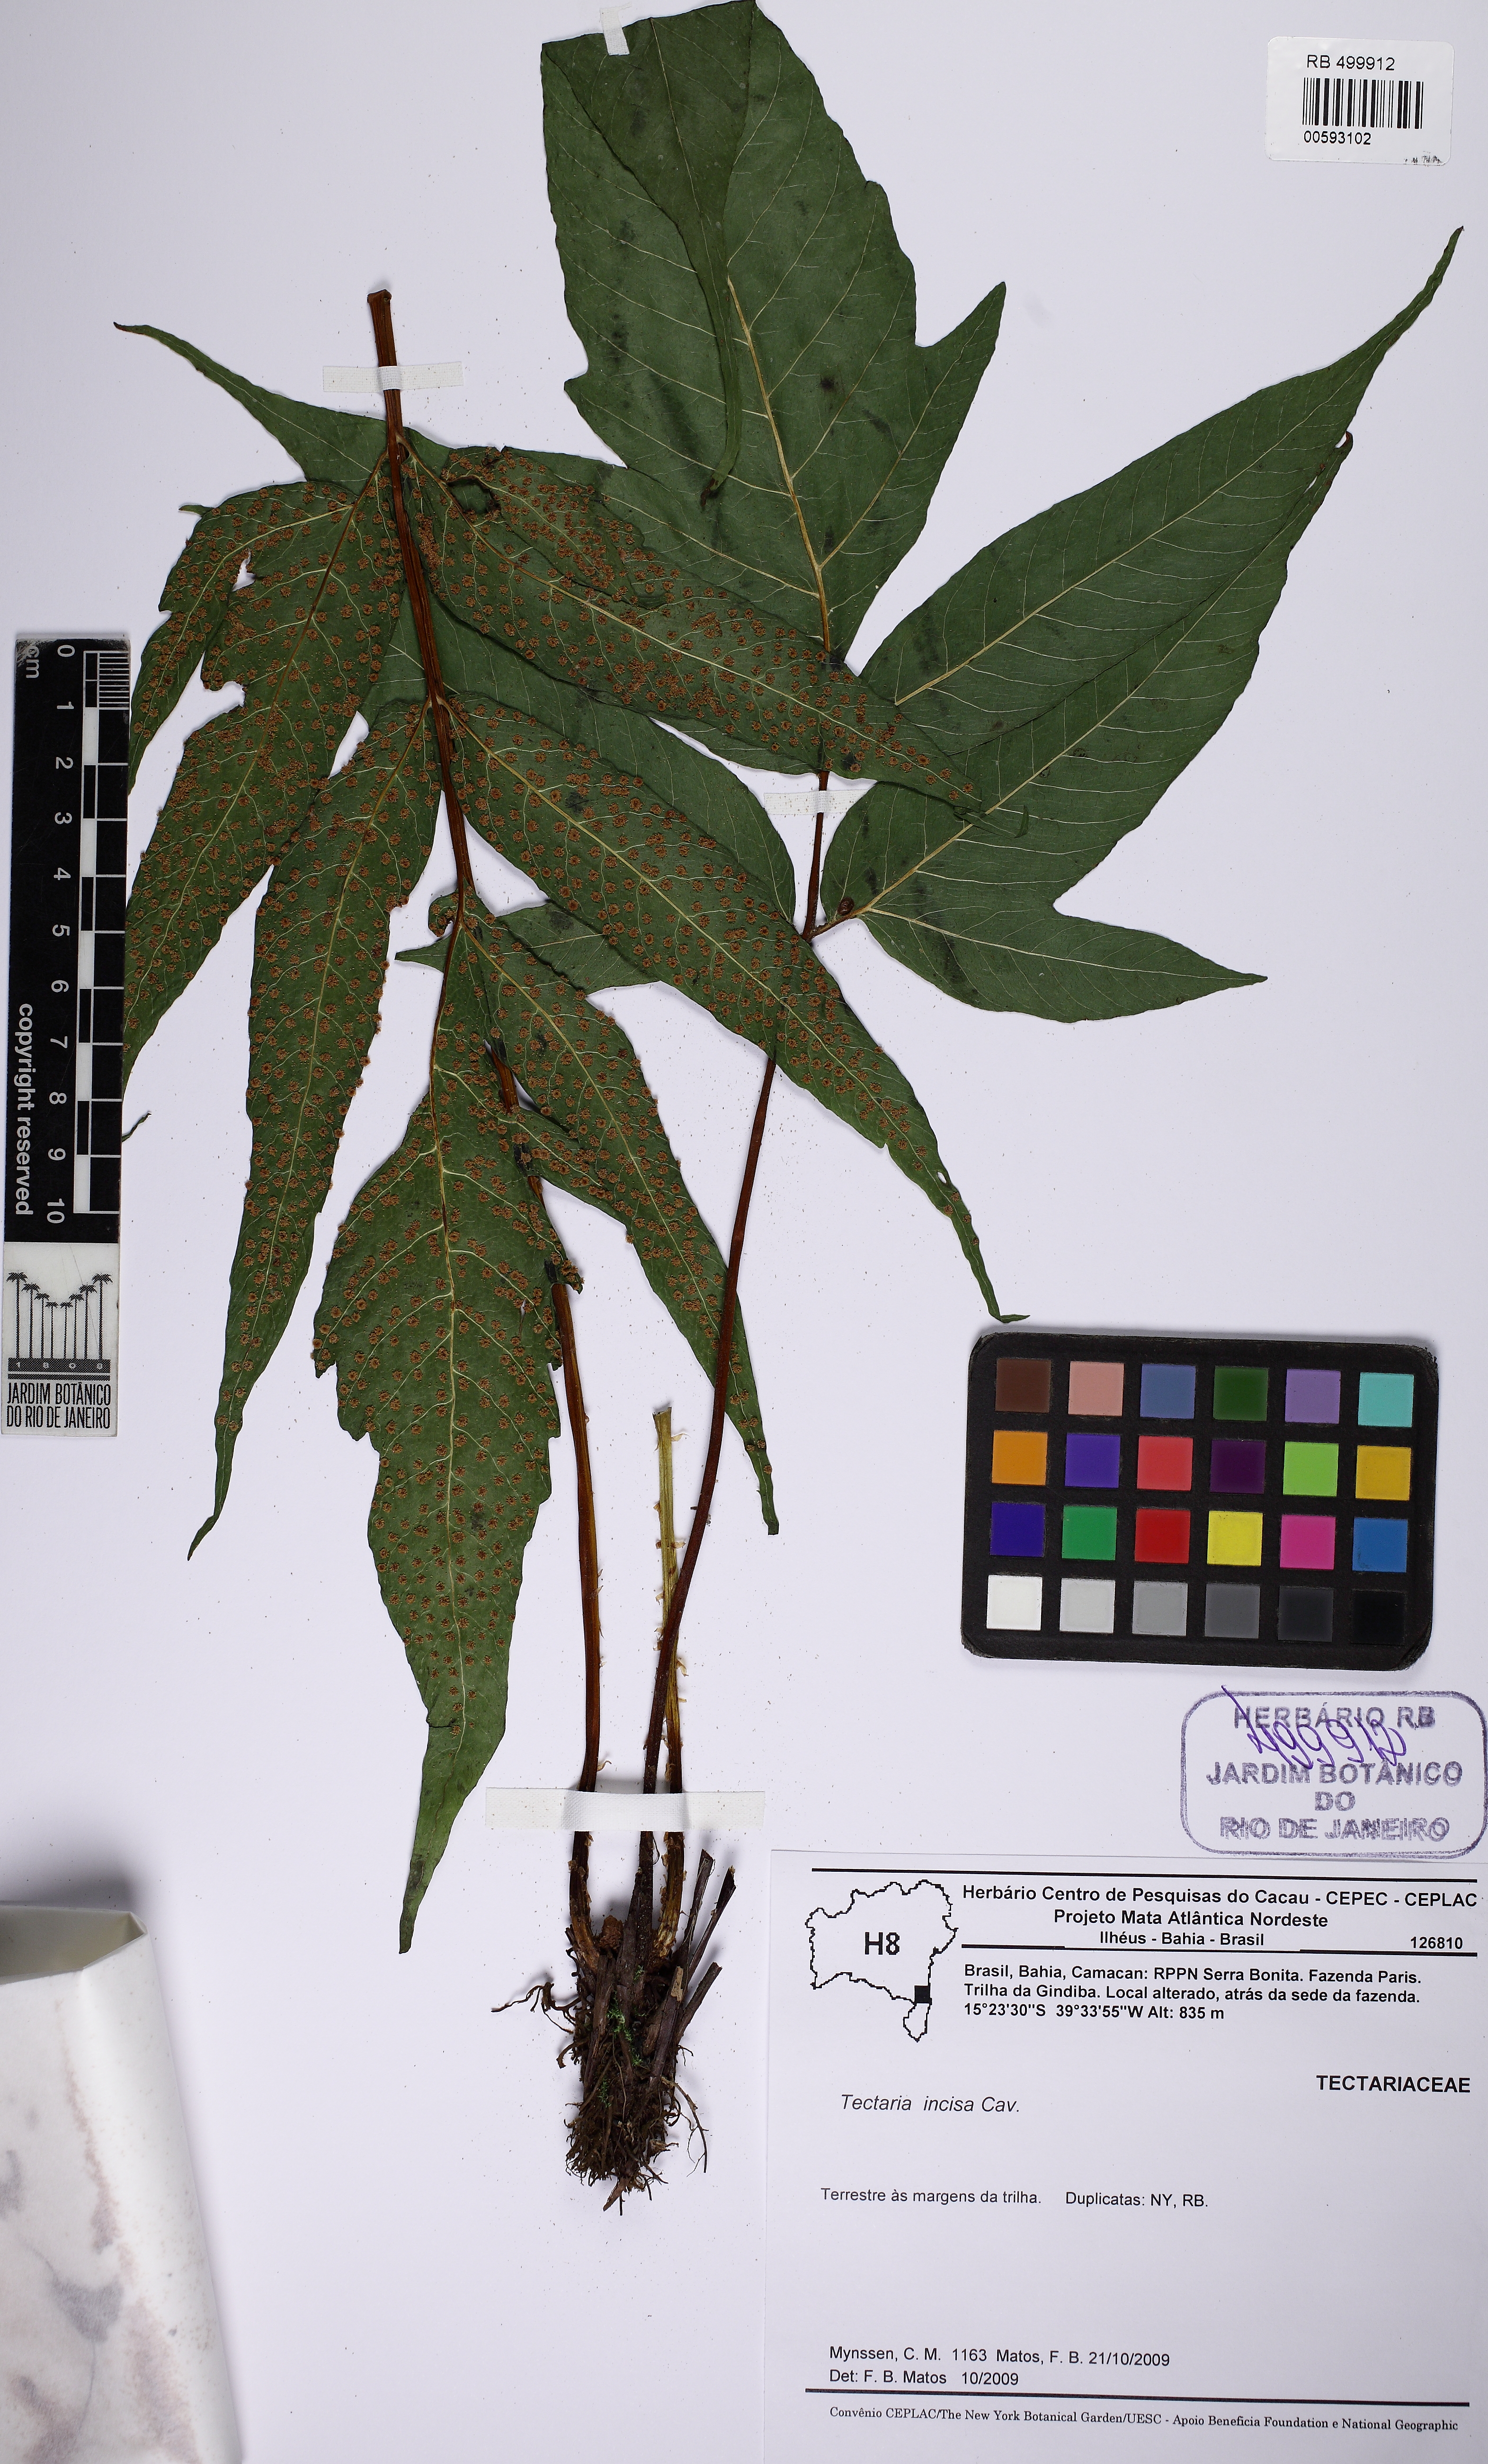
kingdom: Plantae
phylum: Tracheophyta
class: Polypodiopsida
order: Polypodiales
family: Tectariaceae
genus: Tectaria
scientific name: Tectaria incisa
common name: Incised halberd fern
